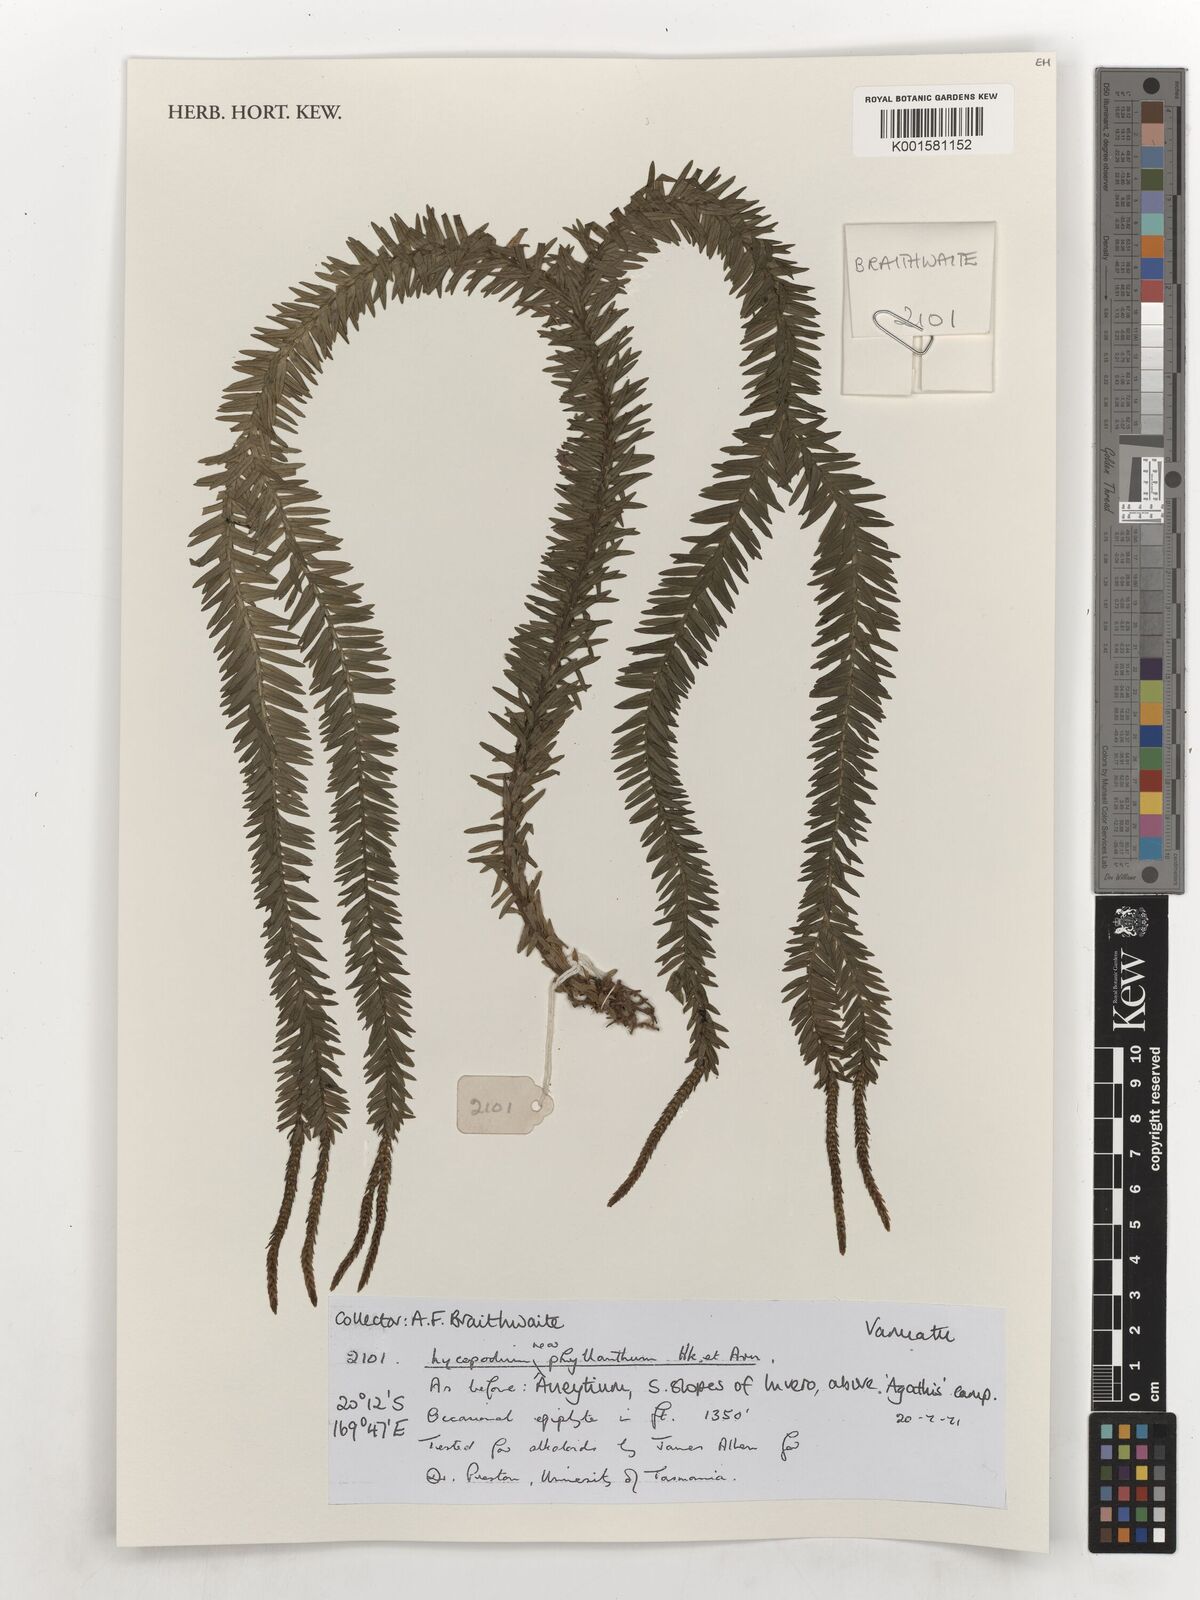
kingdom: Plantae
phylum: Tracheophyta
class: Lycopodiopsida
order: Lycopodiales
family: Lycopodiaceae
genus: Phlegmariurus
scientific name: Phlegmariurus phyllanthus
